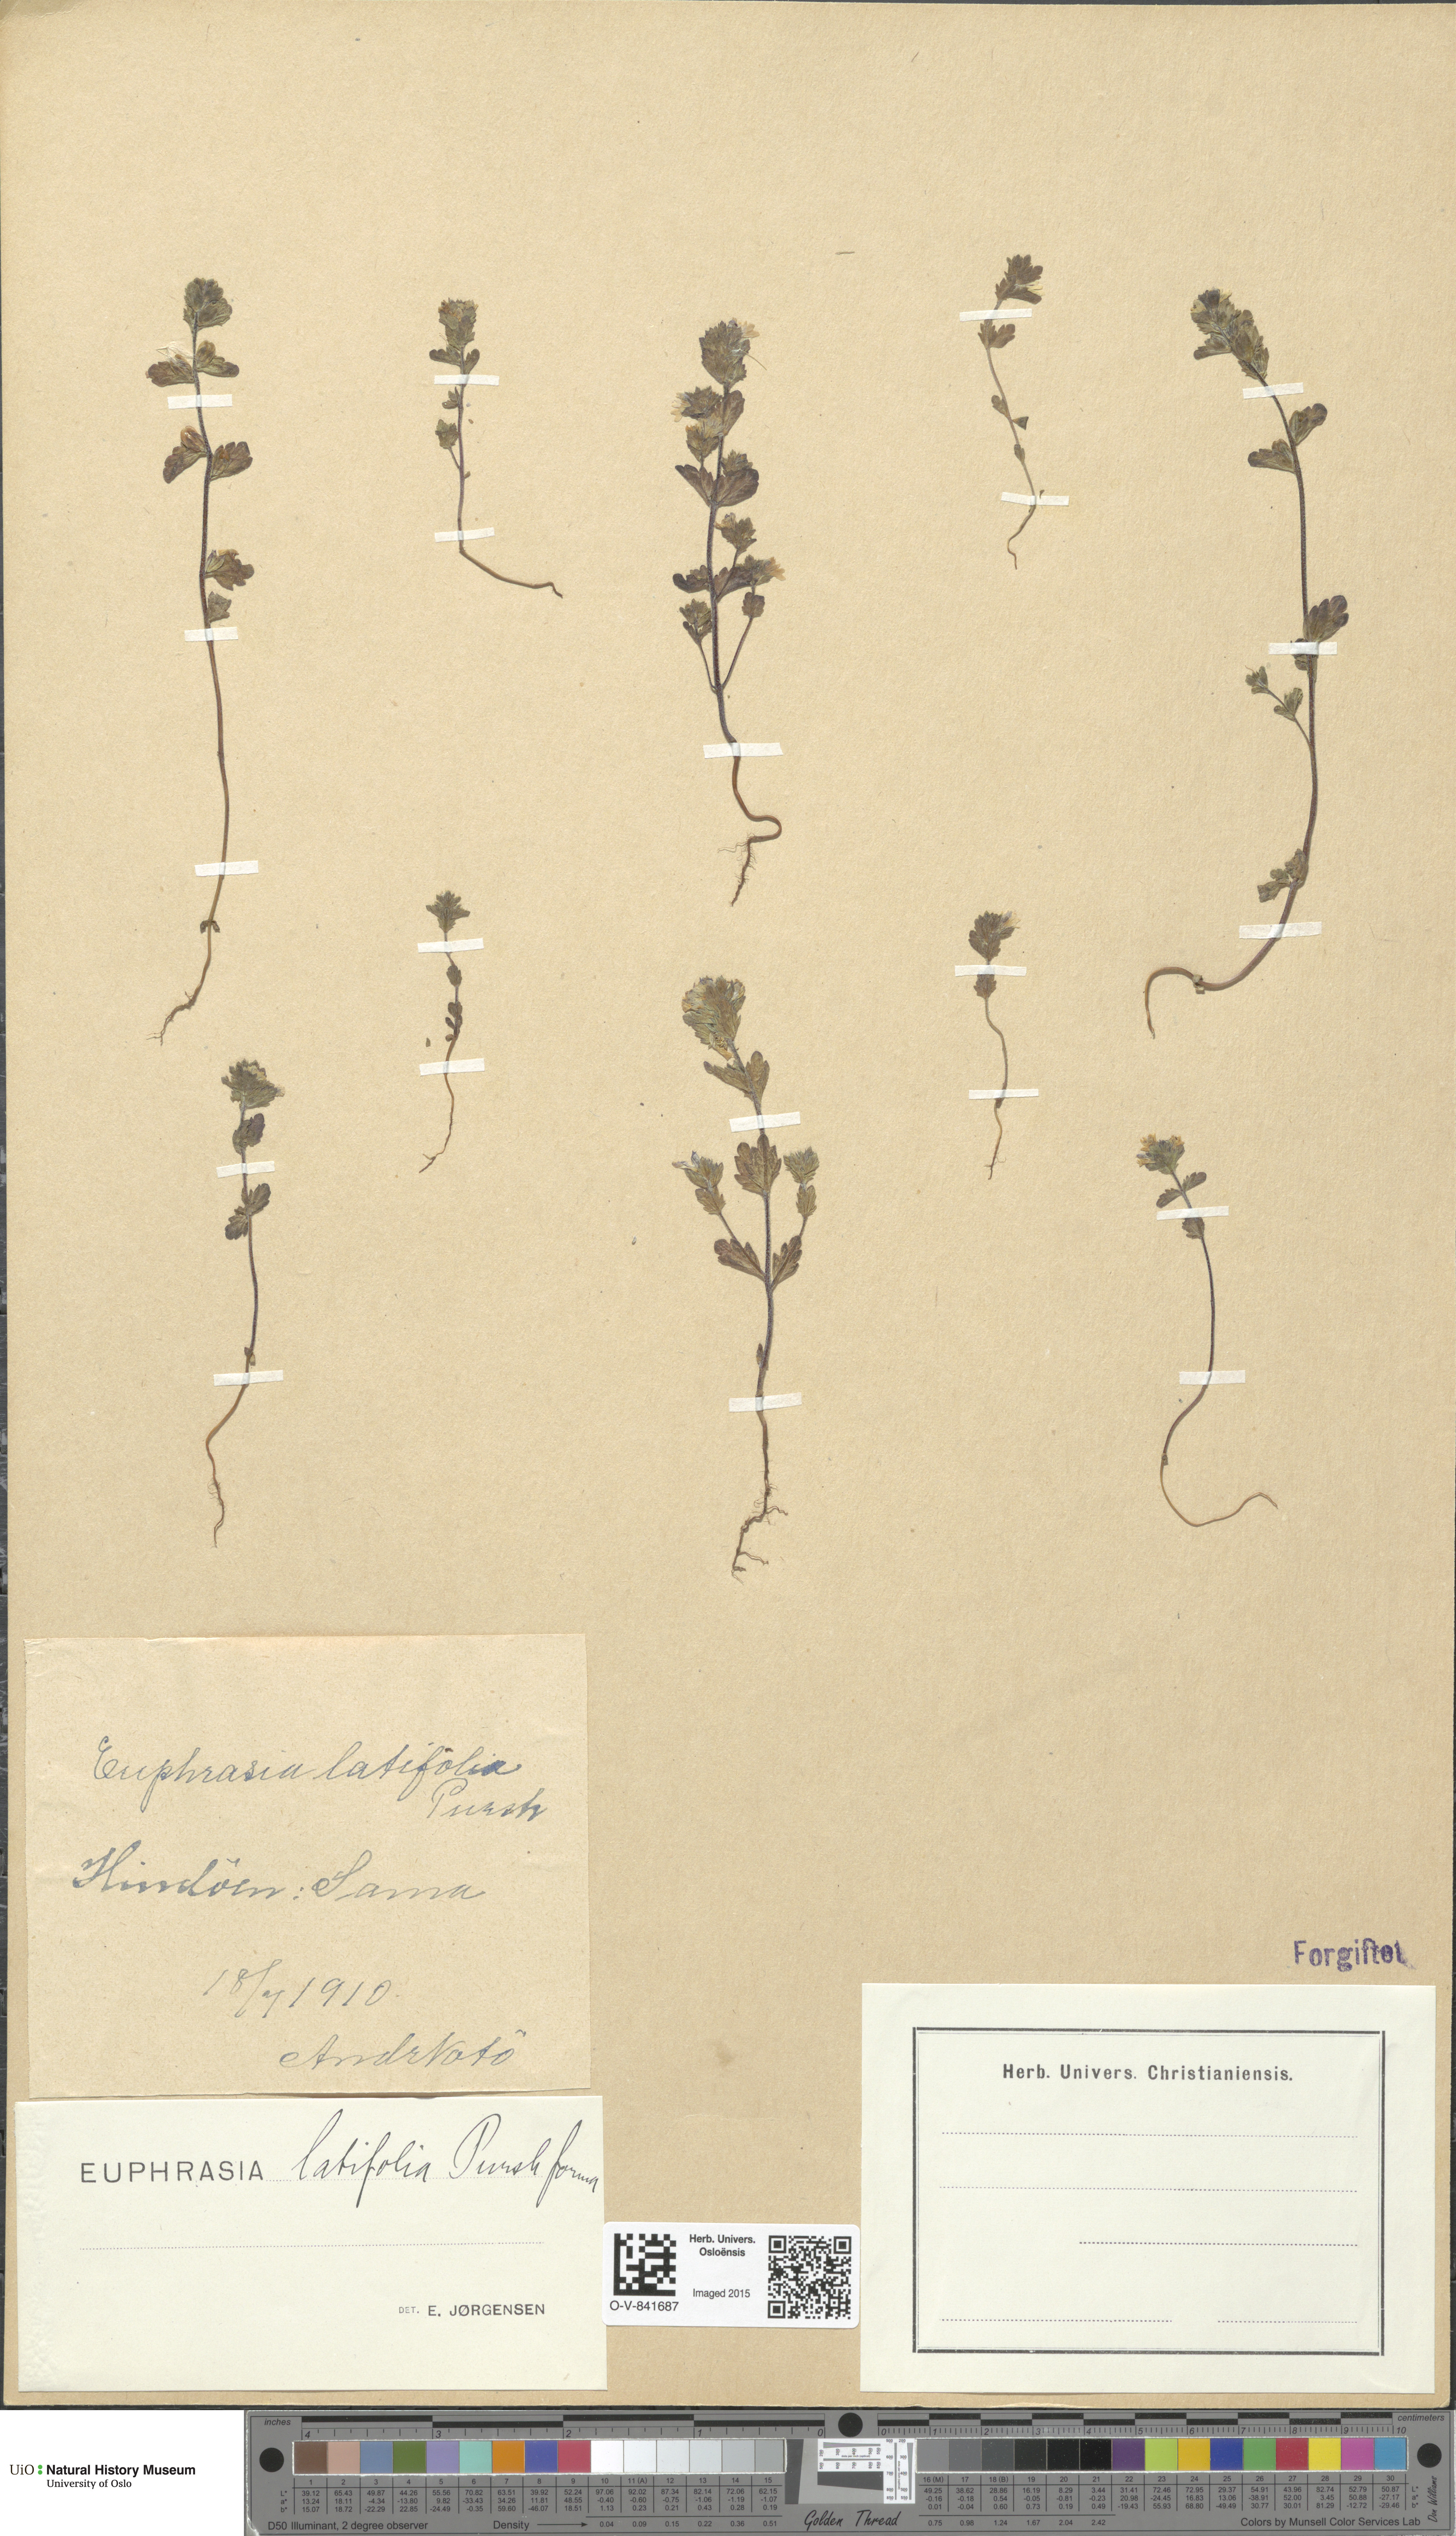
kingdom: Plantae
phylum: Tracheophyta
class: Magnoliopsida
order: Lamiales
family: Orobanchaceae
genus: Euphrasia
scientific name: Euphrasia wettsteinii
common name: Wettstein's eyebright
